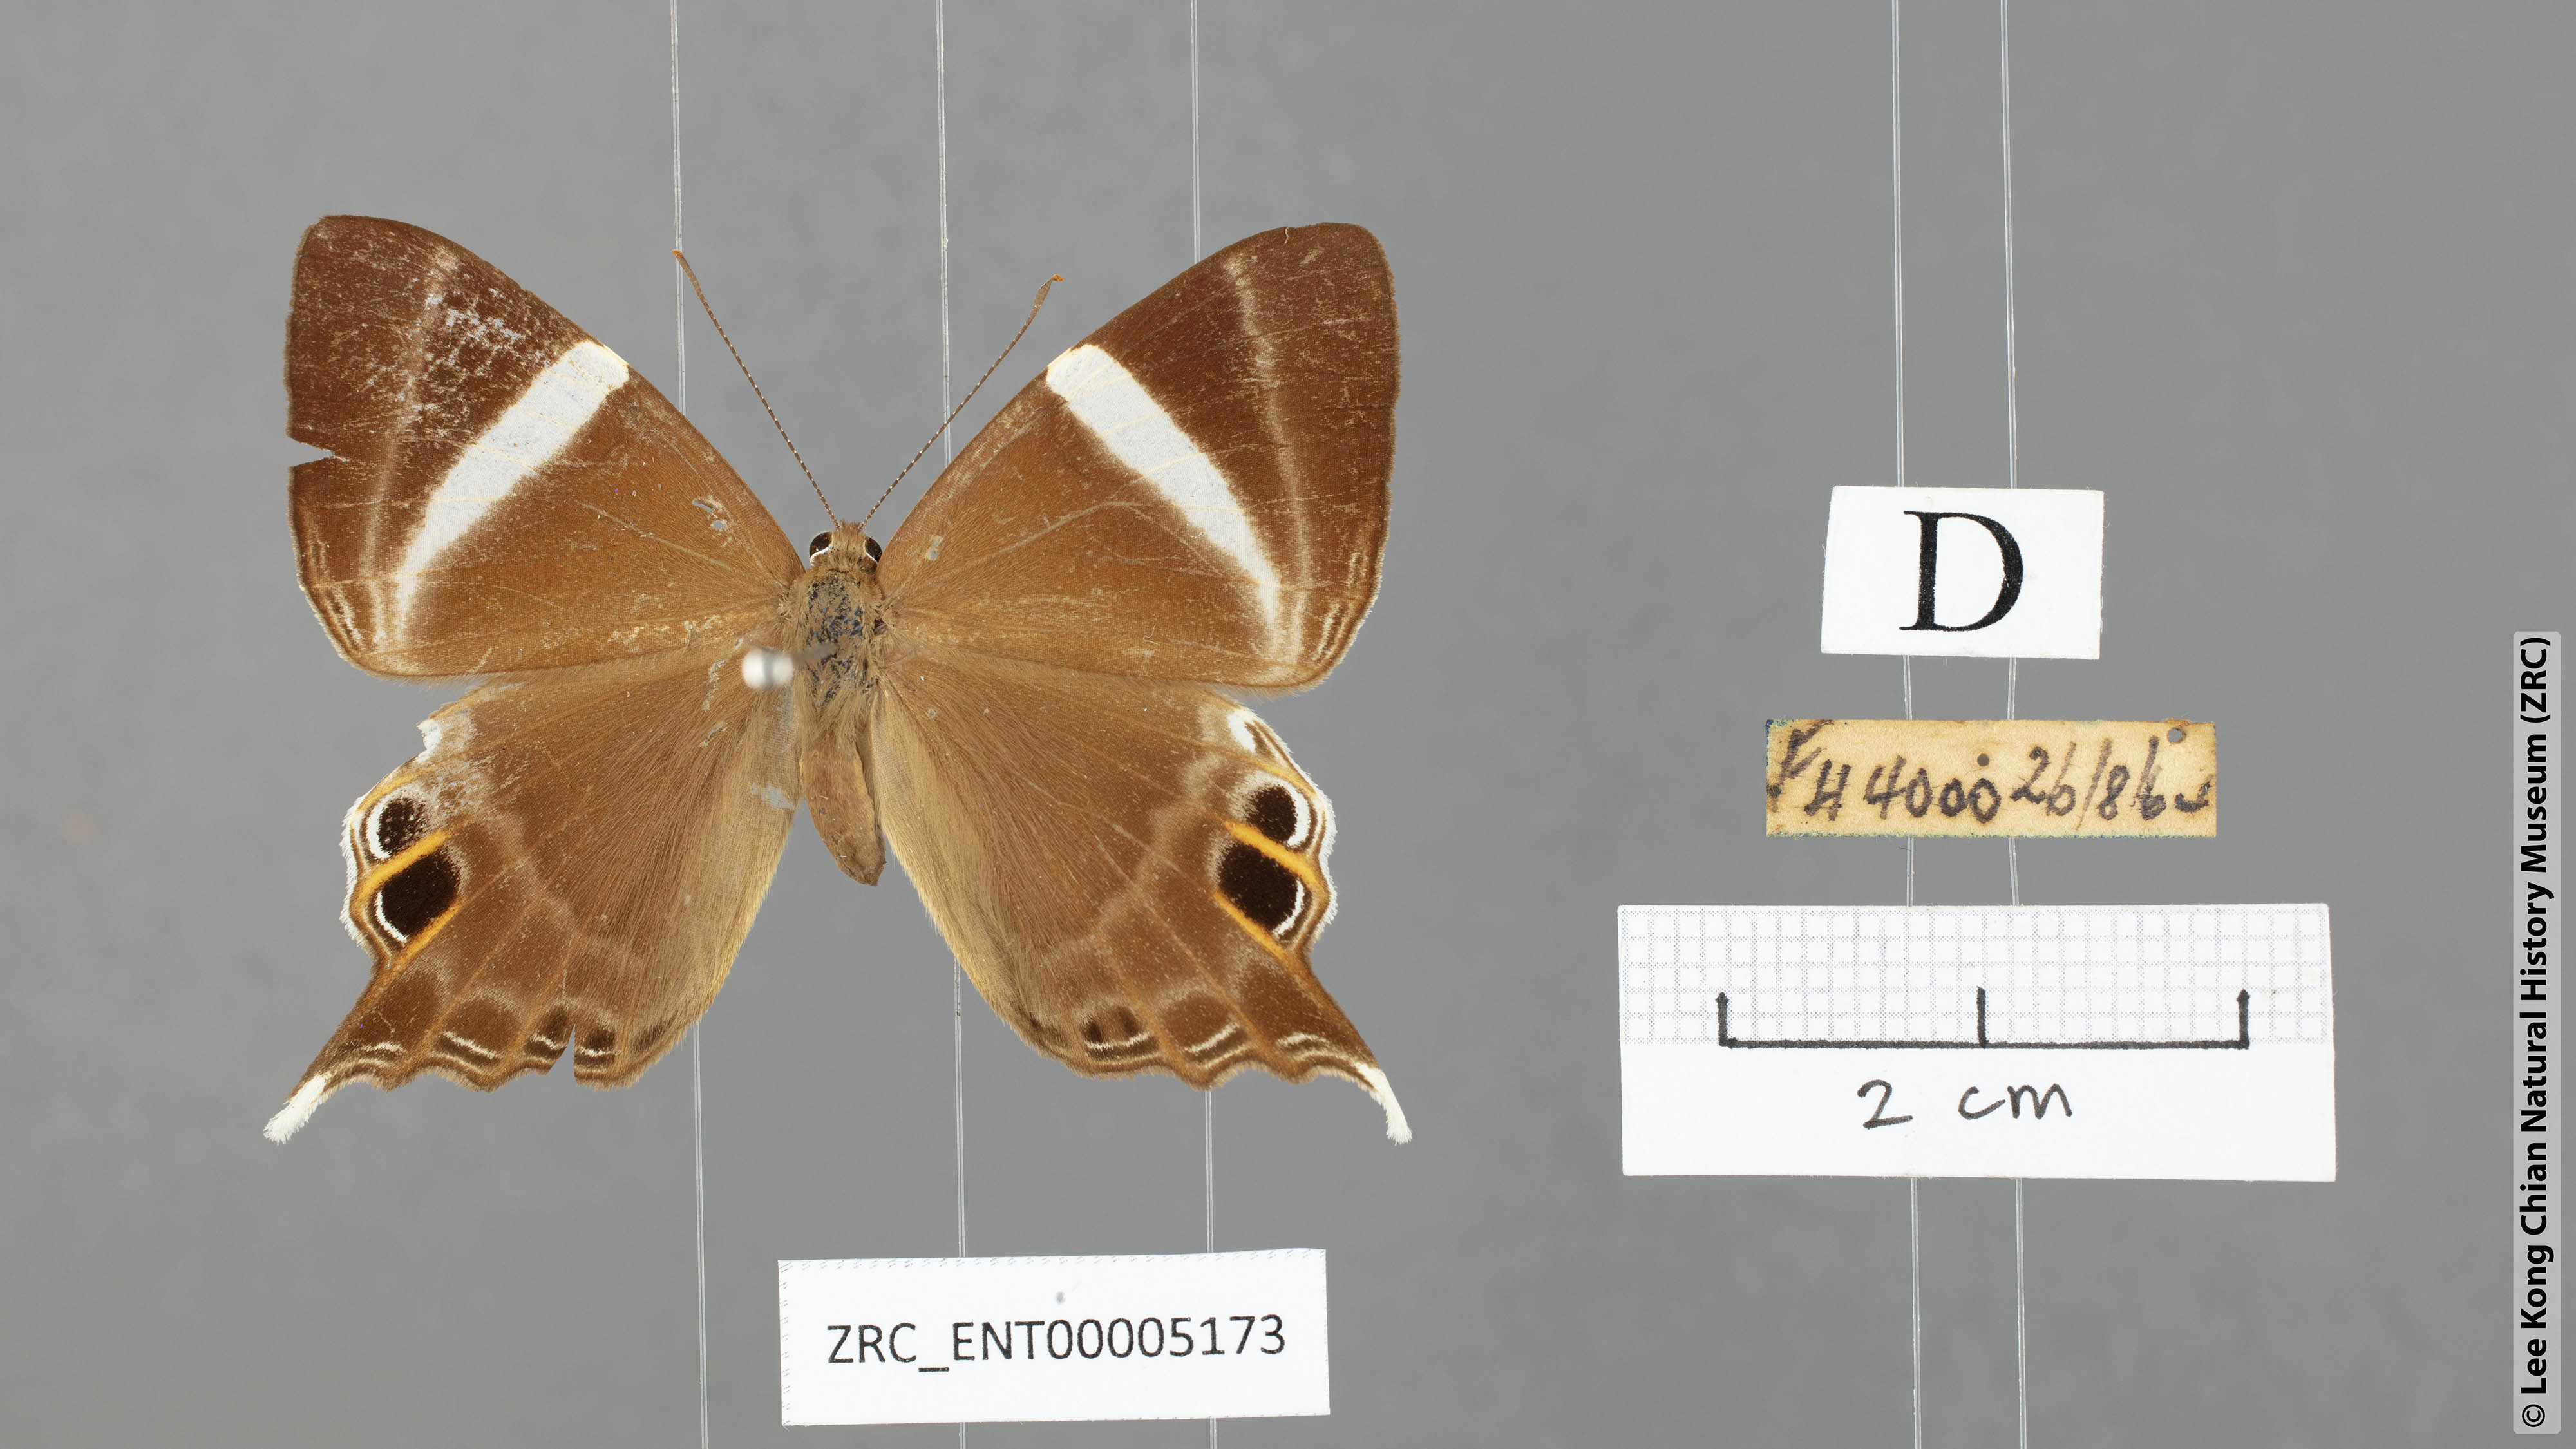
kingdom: Animalia
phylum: Arthropoda
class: Insecta
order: Lepidoptera
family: Riodinidae
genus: Archigenes
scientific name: Archigenes neophron
